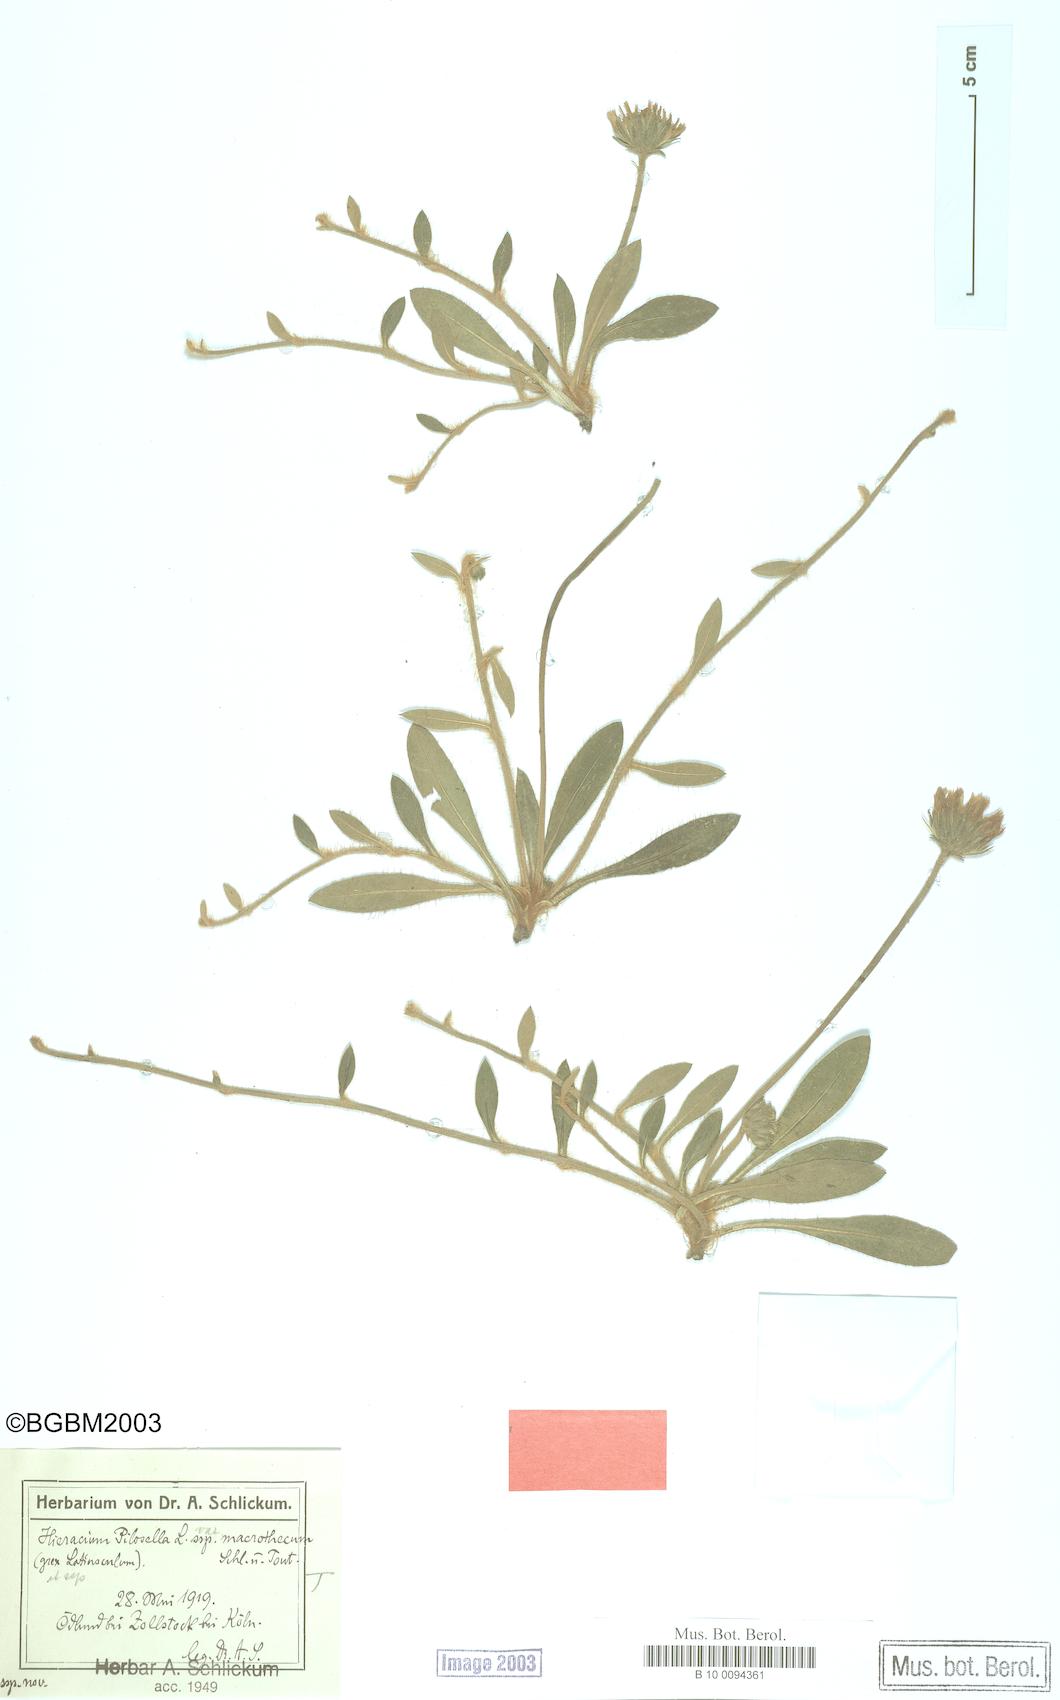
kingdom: Plantae
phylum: Tracheophyta
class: Magnoliopsida
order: Asterales
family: Asteraceae
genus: Pilosella
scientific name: Pilosella officinarum
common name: Mouse-ear hawkweed
